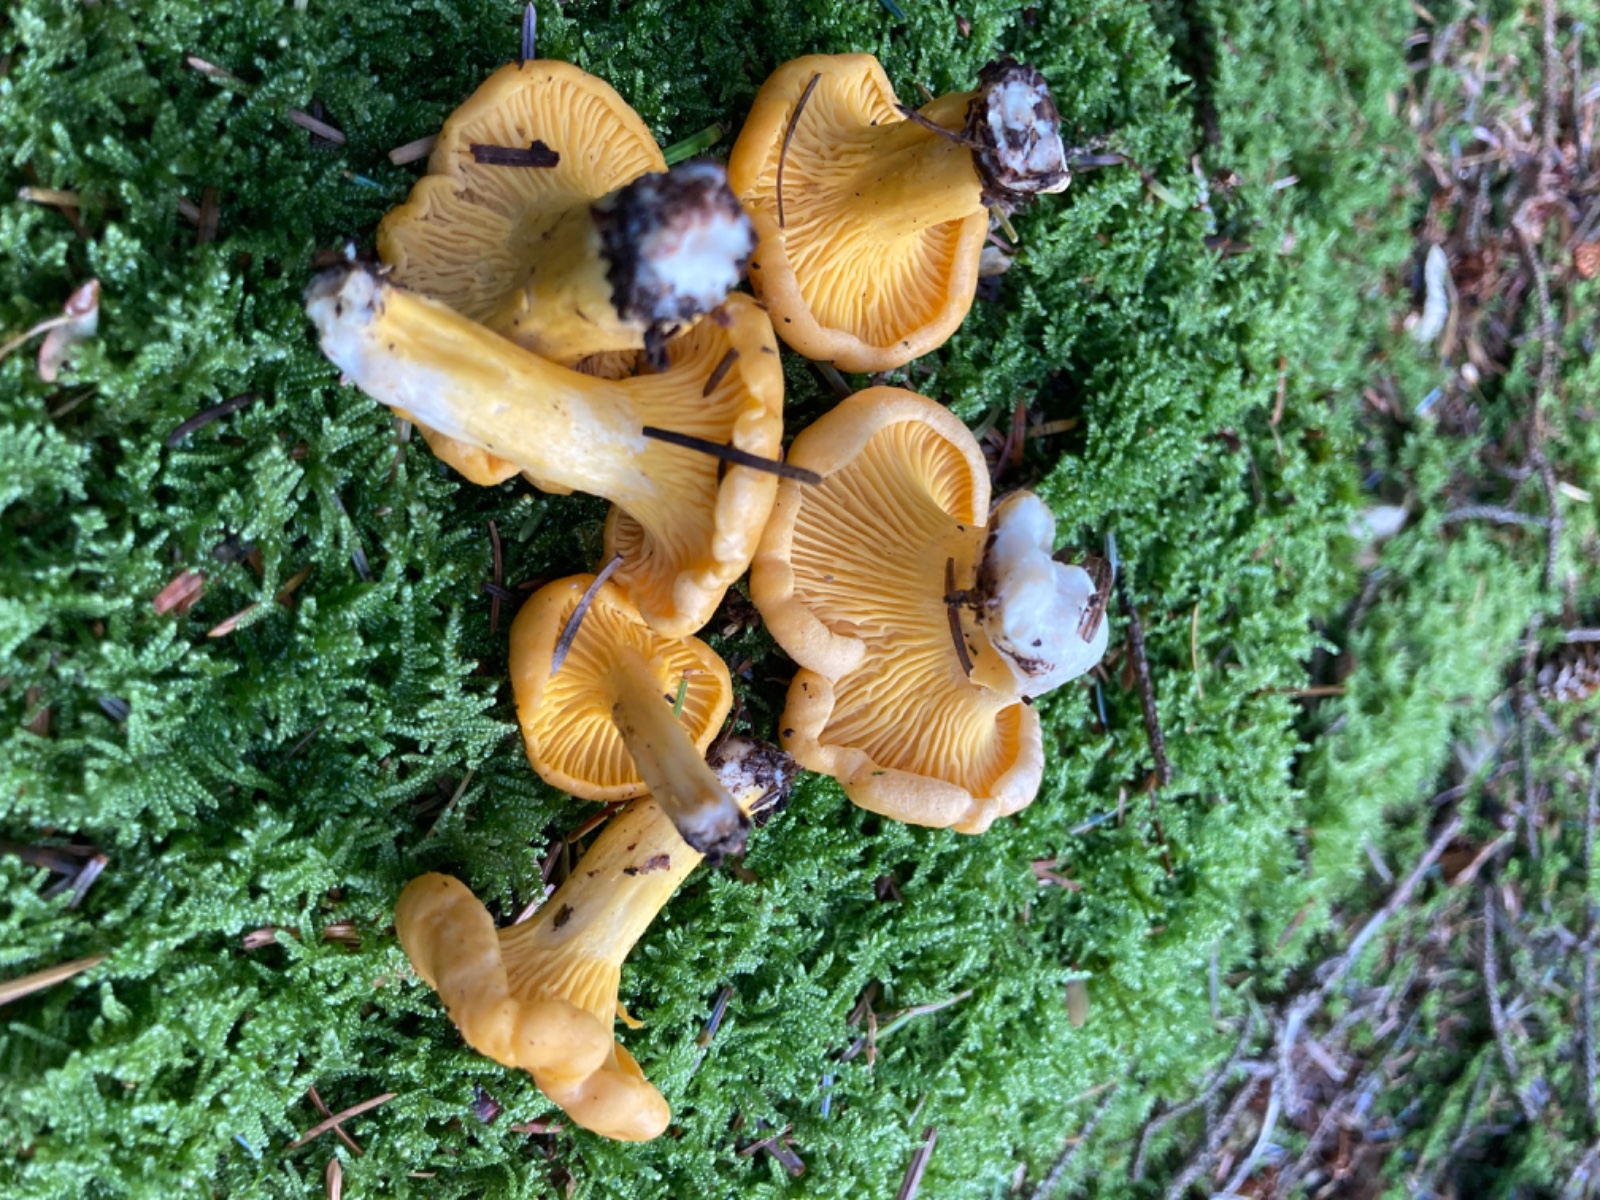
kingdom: Fungi
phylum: Basidiomycota
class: Agaricomycetes
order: Cantharellales
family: Hydnaceae
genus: Cantharellus
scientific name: Cantharellus cibarius
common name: almindelig kantarel
